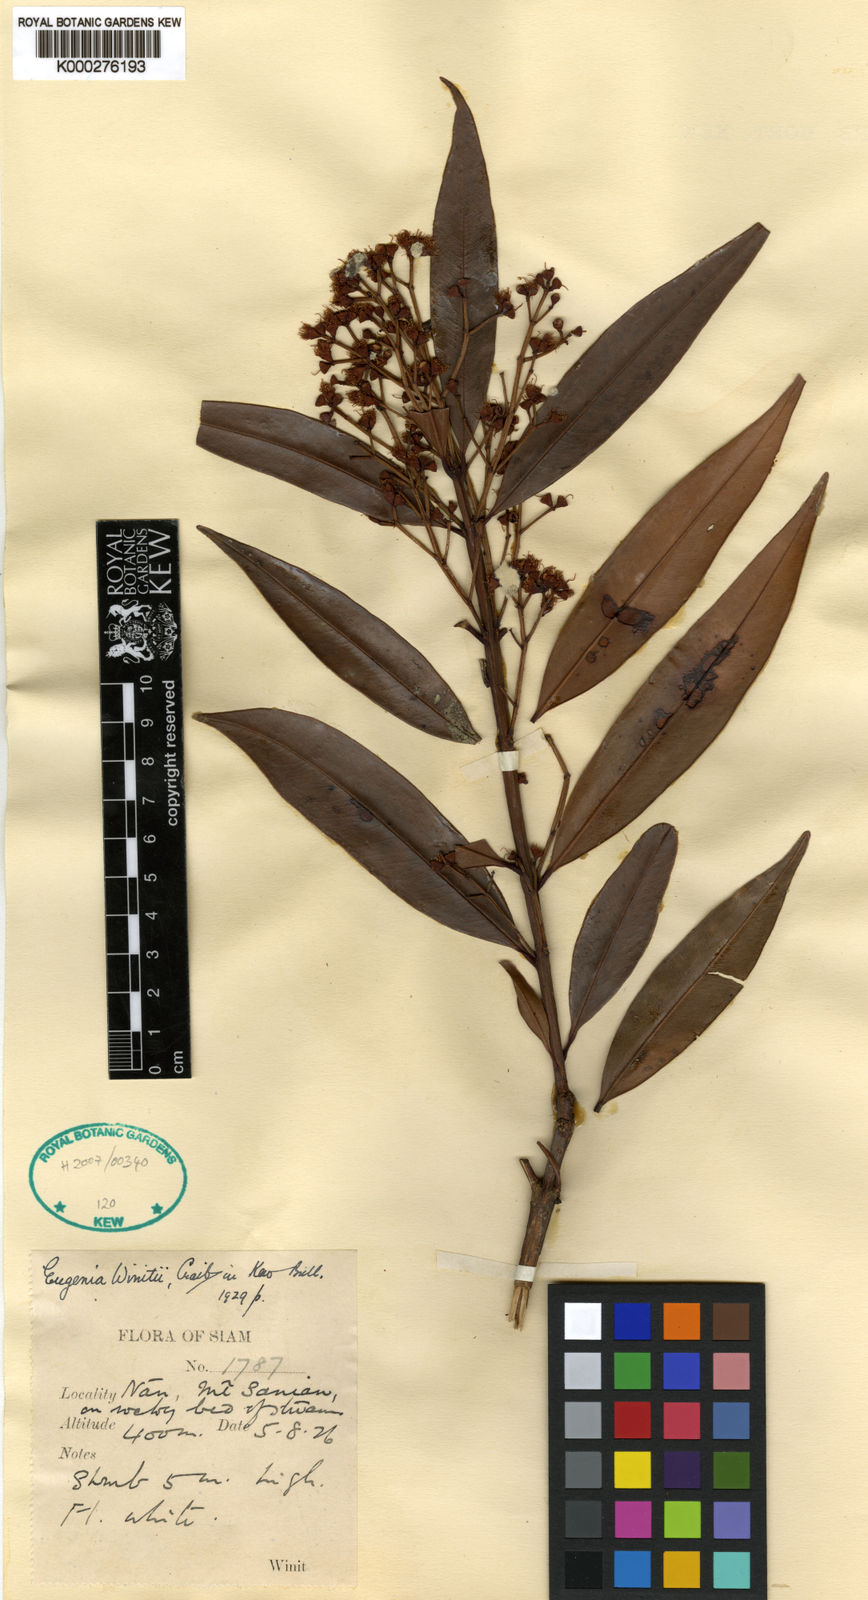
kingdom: Plantae
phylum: Tracheophyta
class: Magnoliopsida
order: Myrtales
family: Myrtaceae
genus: Syzygium
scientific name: Syzygium winitii
